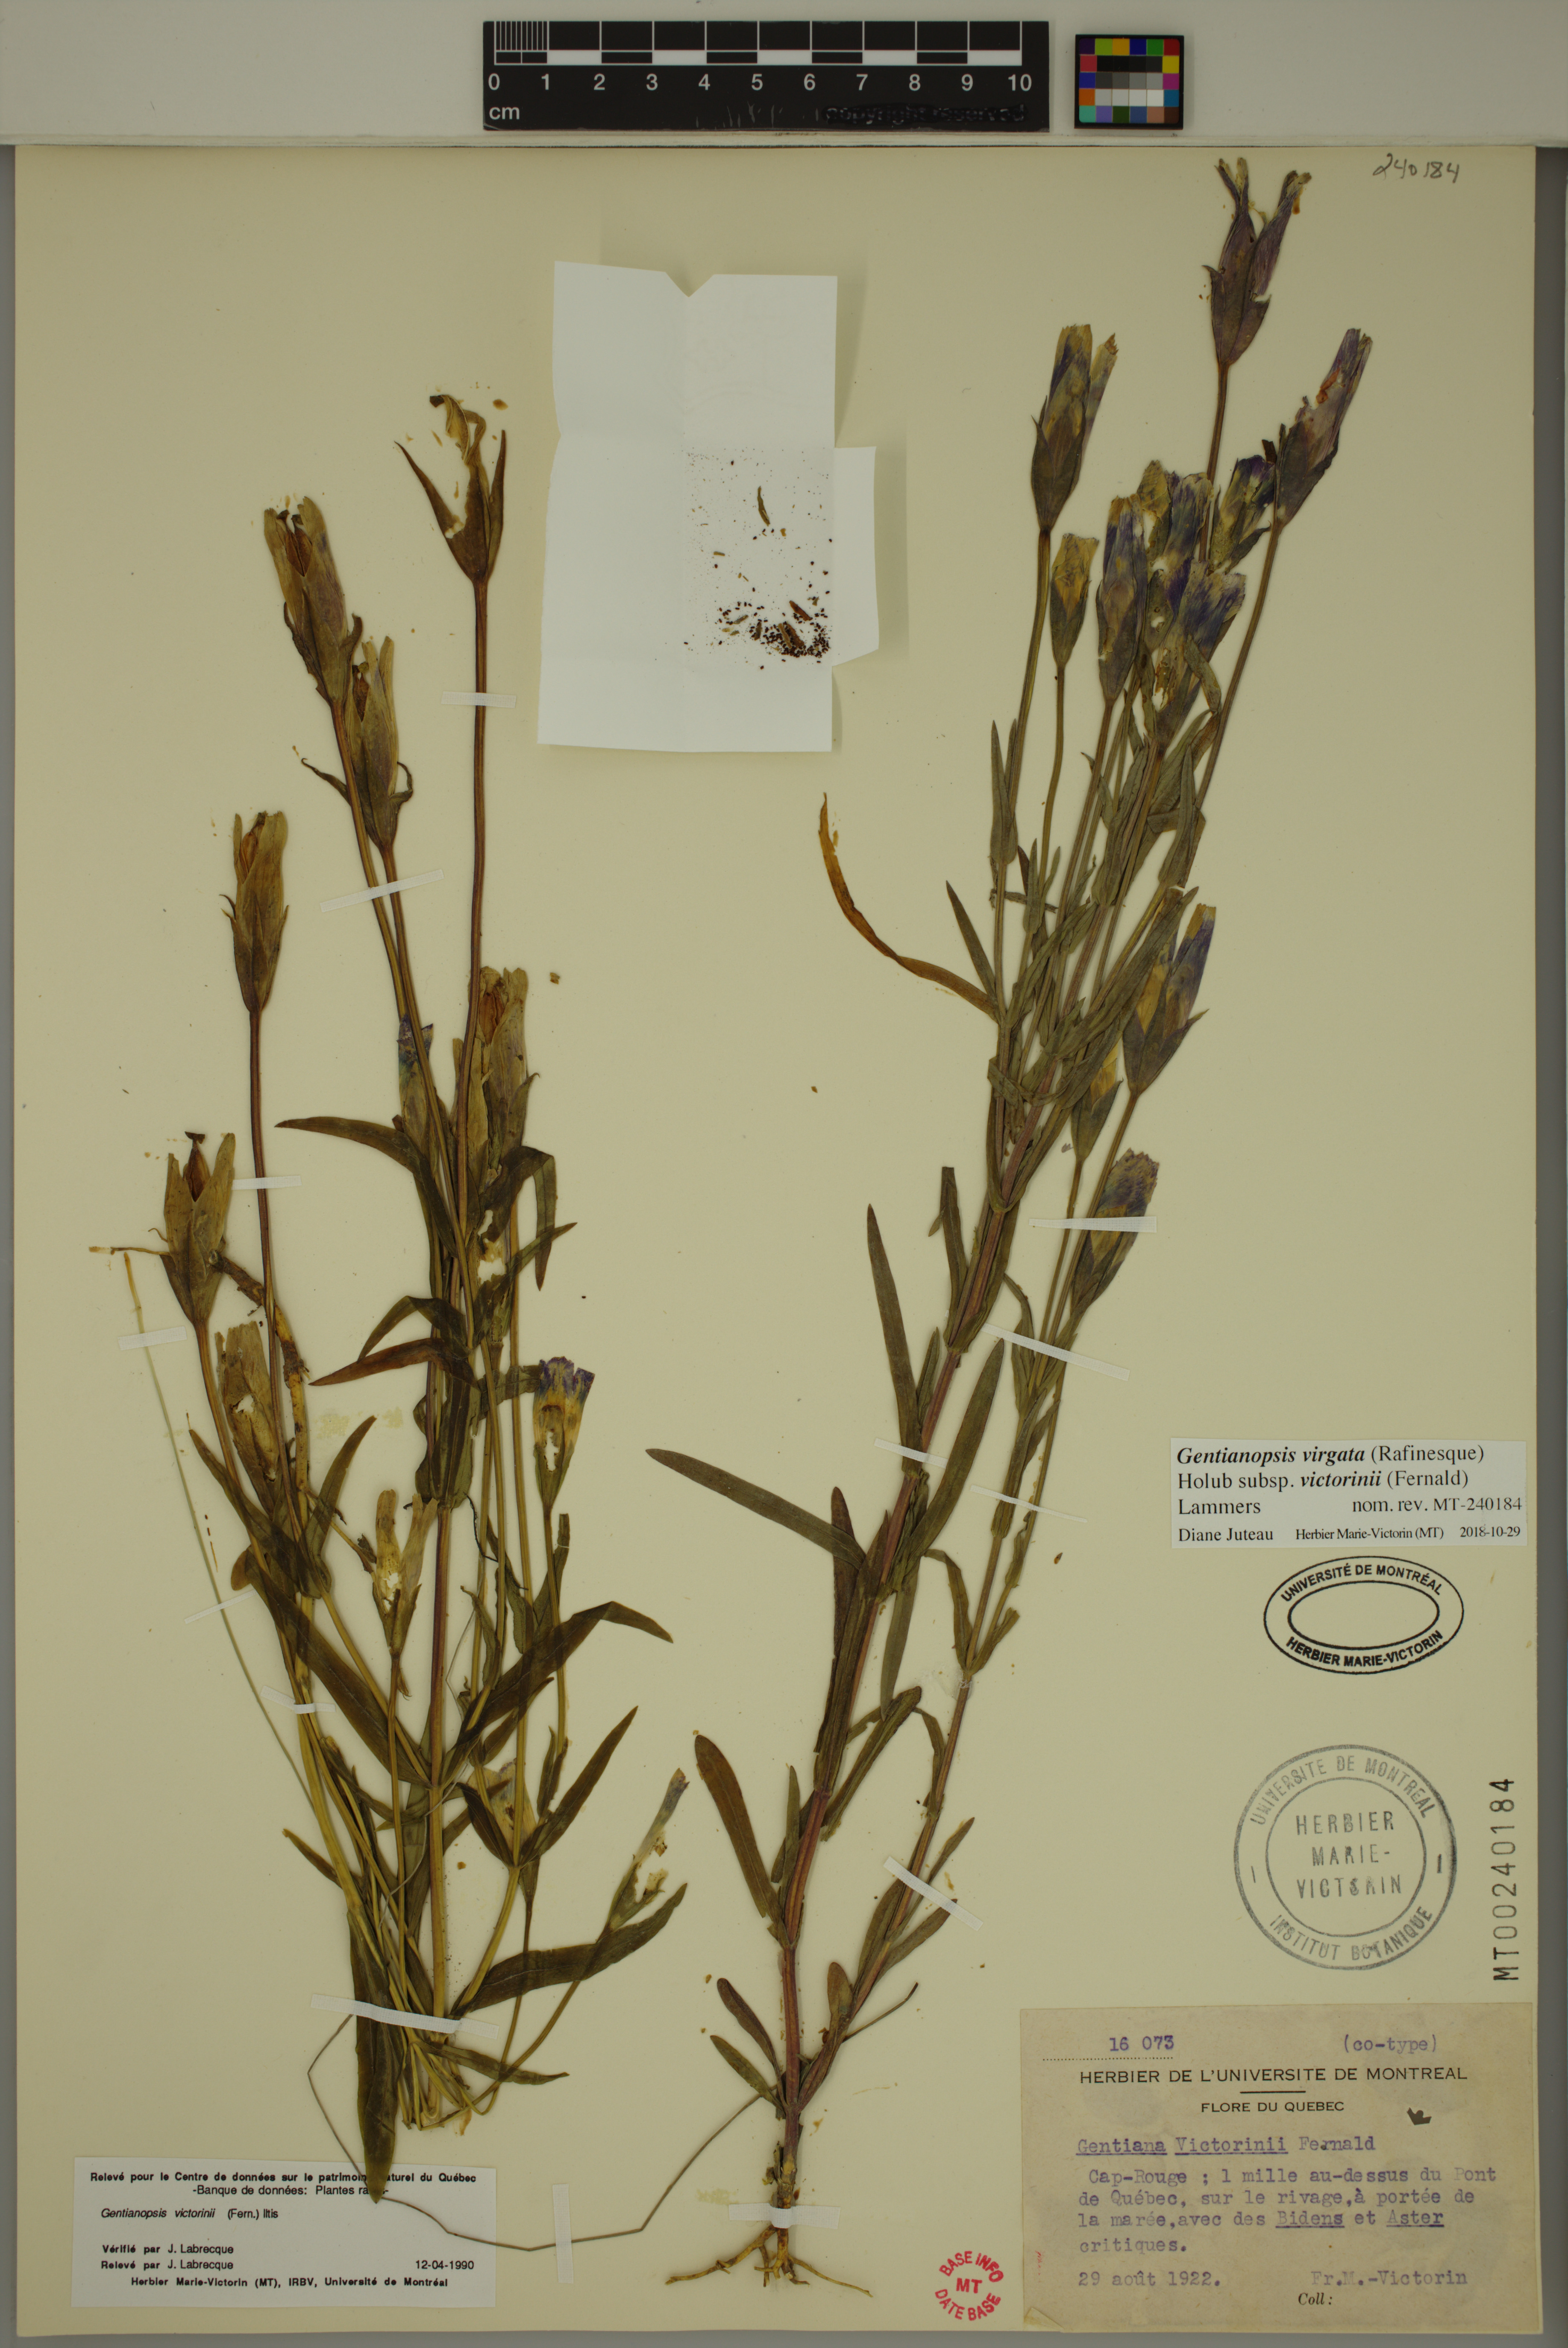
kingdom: Plantae
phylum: Tracheophyta
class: Magnoliopsida
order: Gentianales
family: Gentianaceae
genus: Gentianopsis
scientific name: Gentianopsis victorinii
